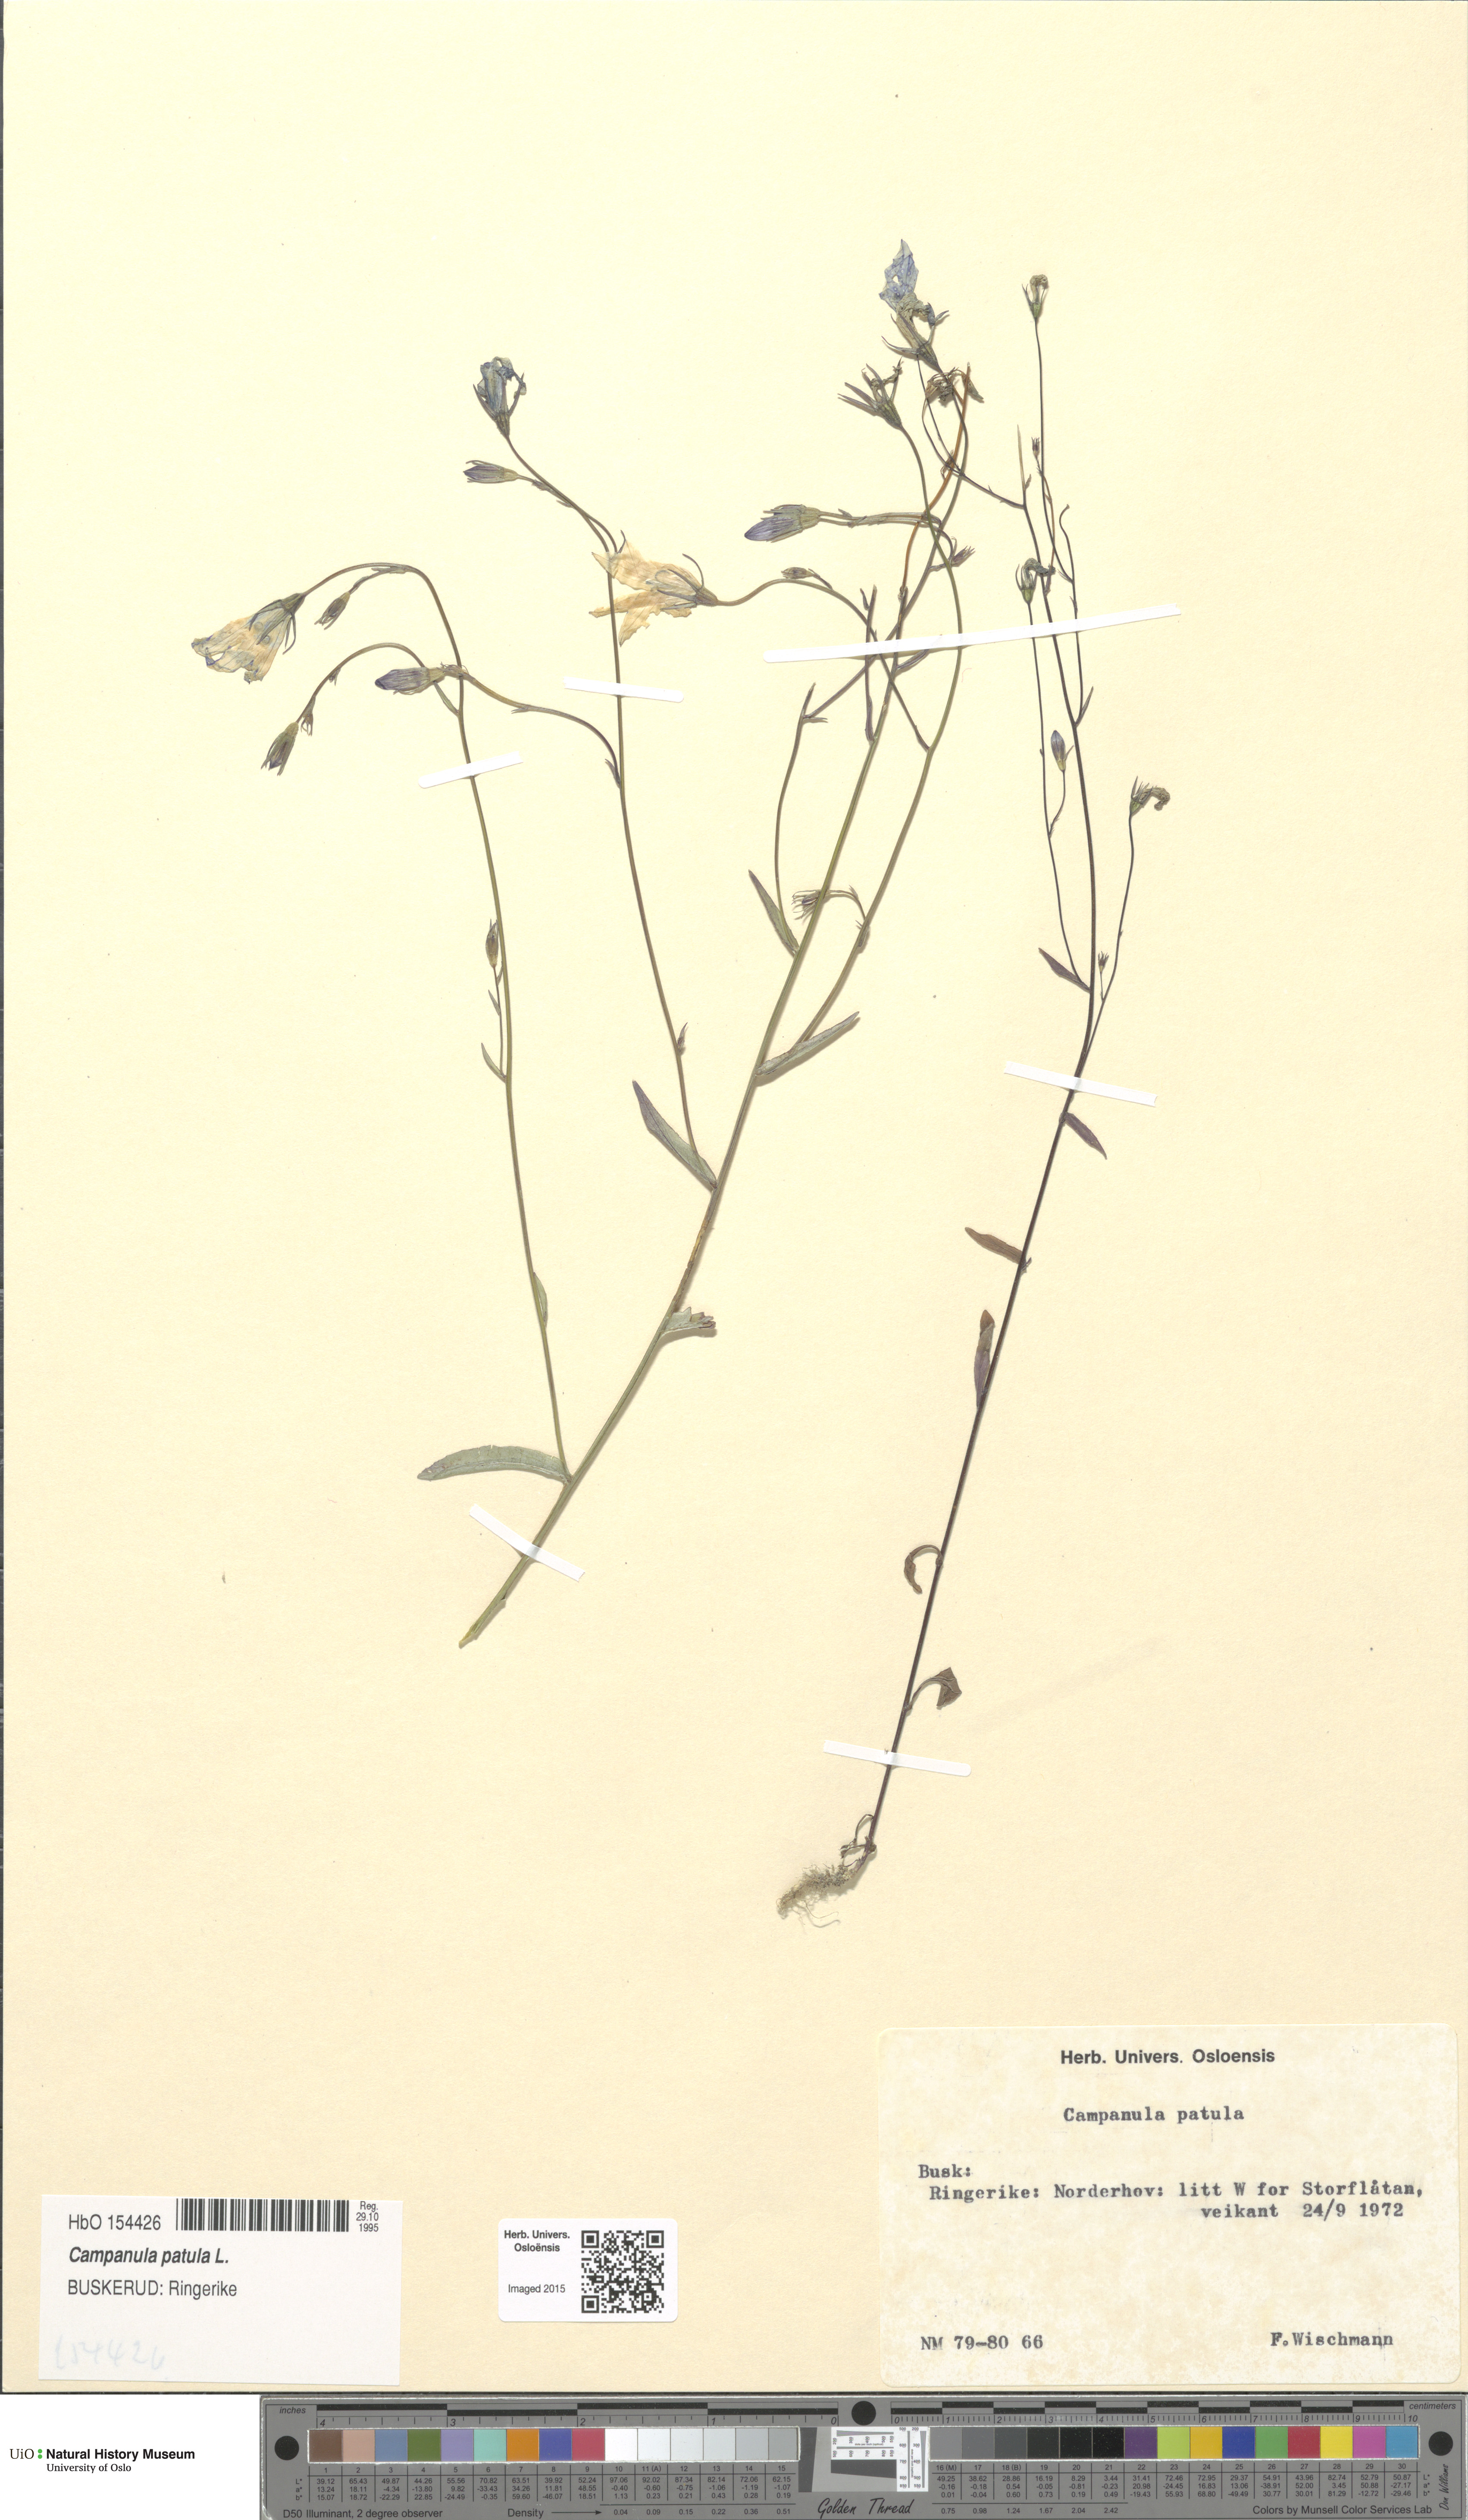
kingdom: Plantae
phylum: Tracheophyta
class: Magnoliopsida
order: Asterales
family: Campanulaceae
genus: Campanula
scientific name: Campanula patula
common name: Spreading bellflower
